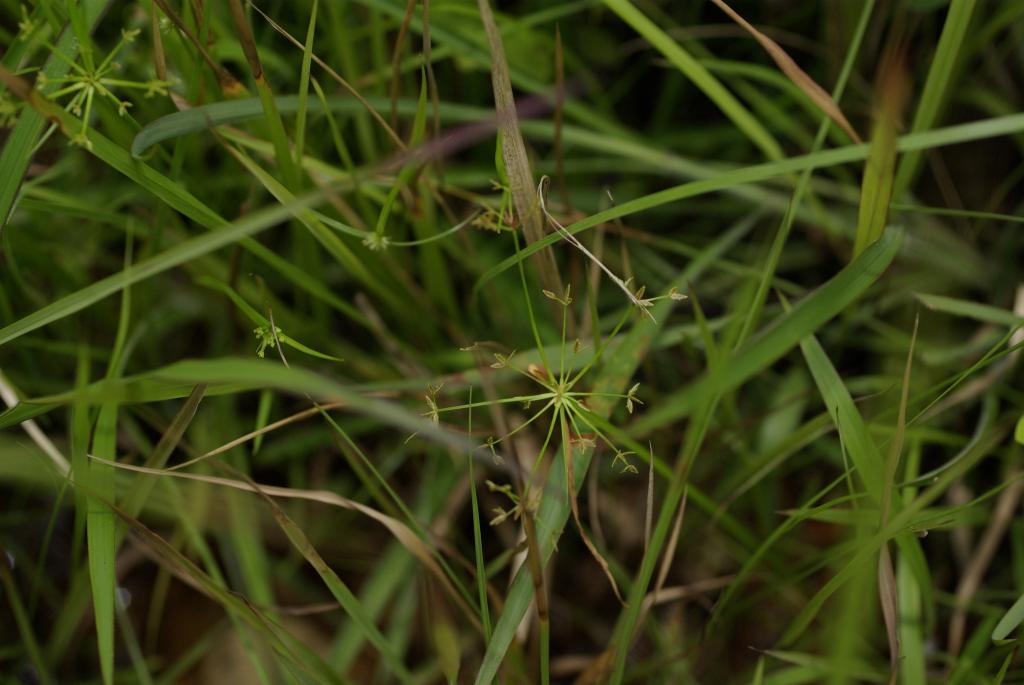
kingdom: Plantae
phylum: Tracheophyta
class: Liliopsida
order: Poales
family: Cyperaceae
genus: Cyperus
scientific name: Cyperus haspan
